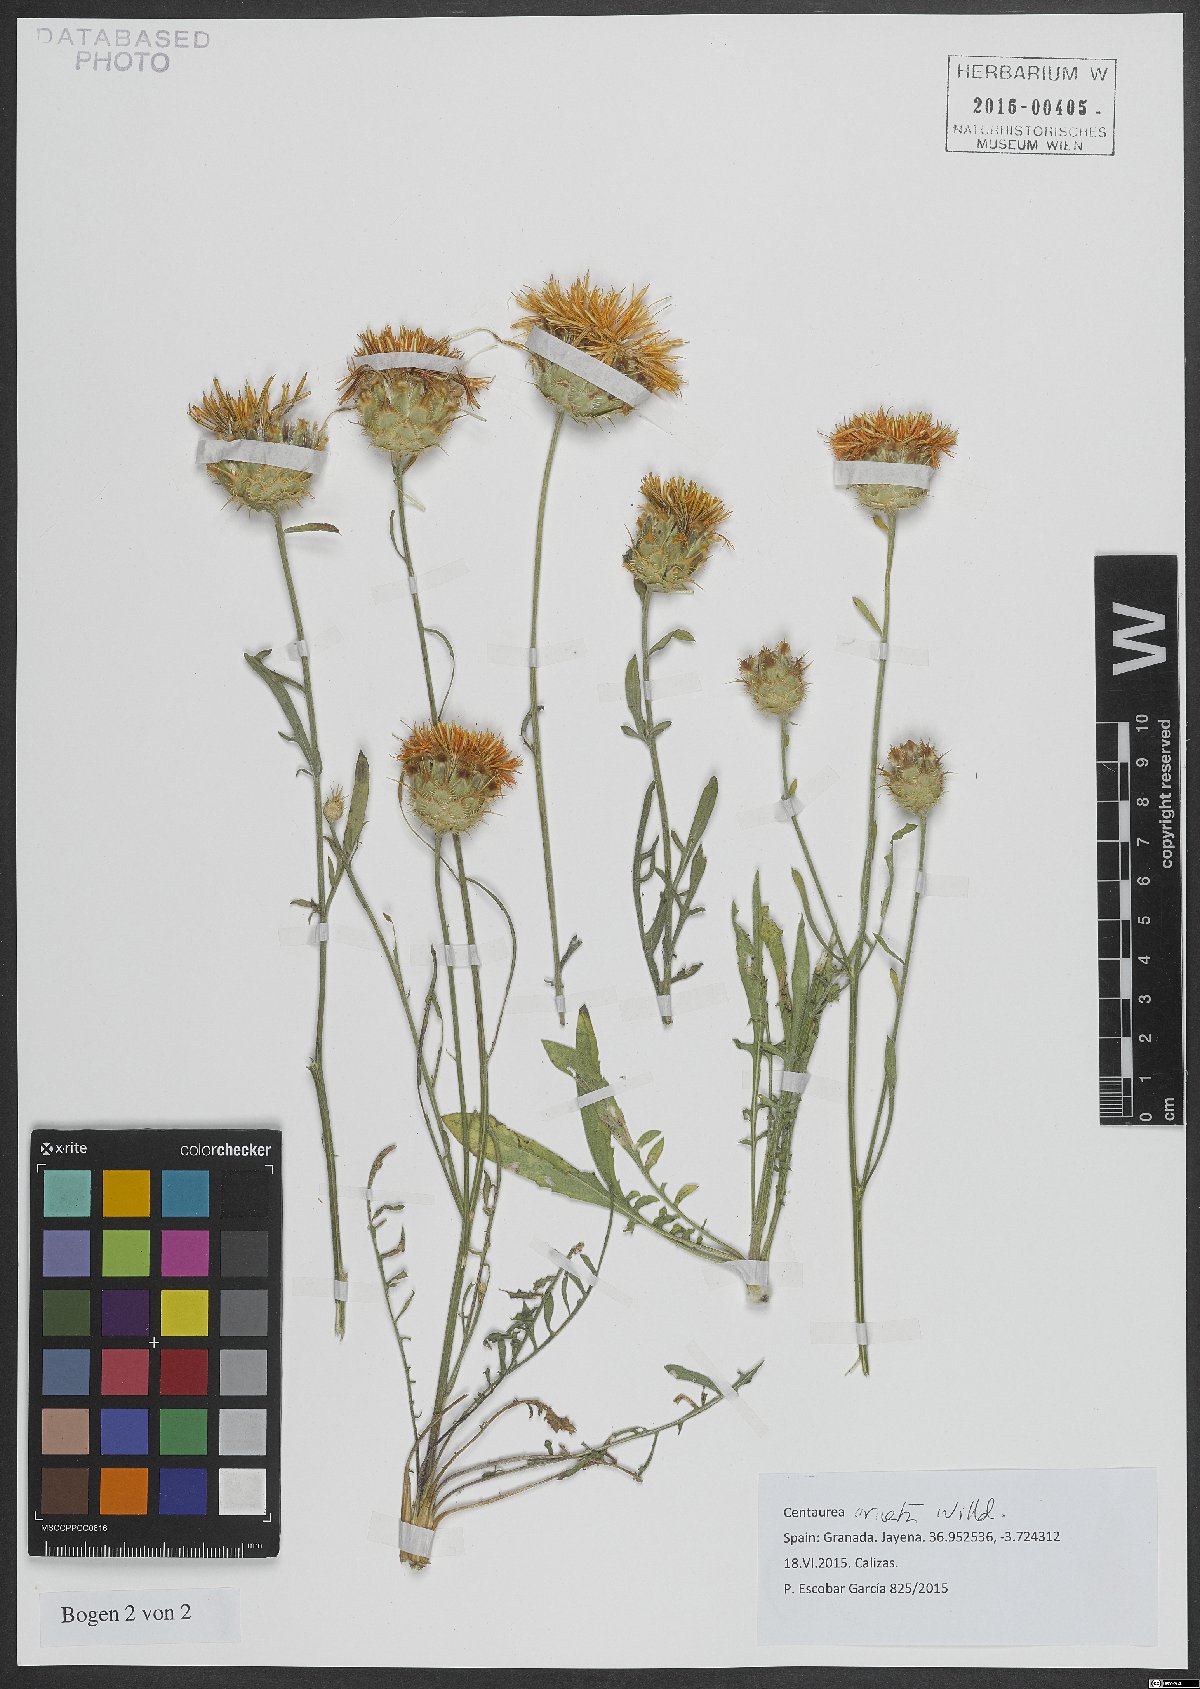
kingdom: Plantae
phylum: Tracheophyta
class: Magnoliopsida
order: Asterales
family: Asteraceae
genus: Centaurea
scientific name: Centaurea ornata
